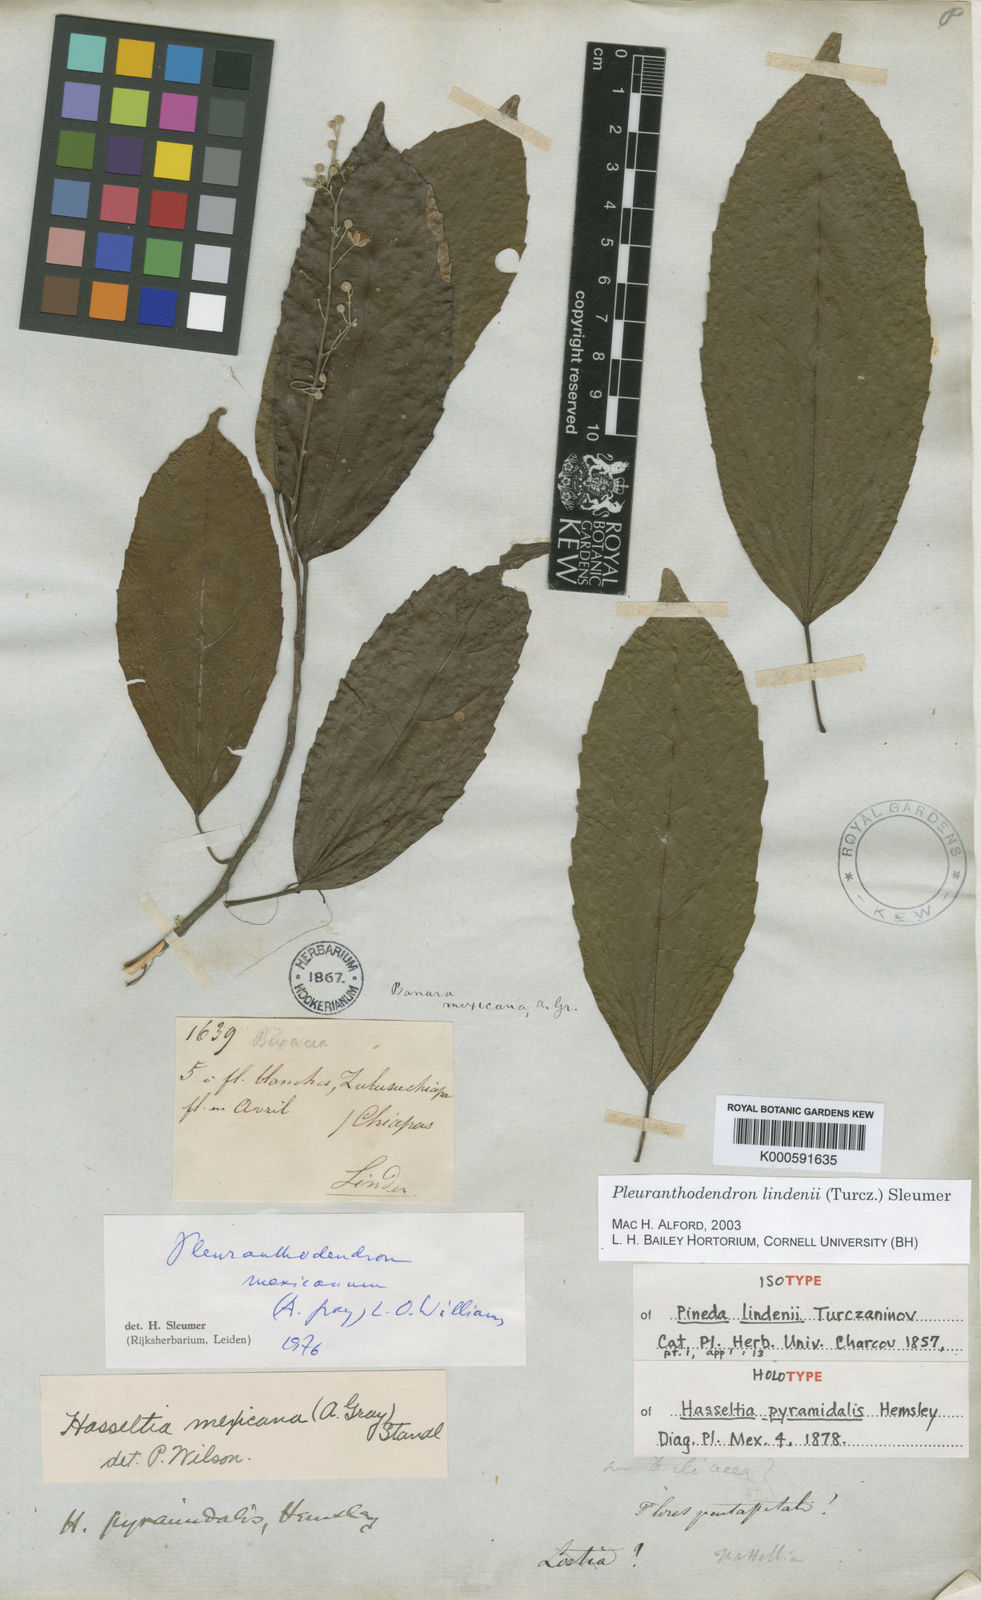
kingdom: Plantae
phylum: Tracheophyta
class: Magnoliopsida
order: Malpighiales
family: Salicaceae
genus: Pleuranthodendron
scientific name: Pleuranthodendron lindenii
